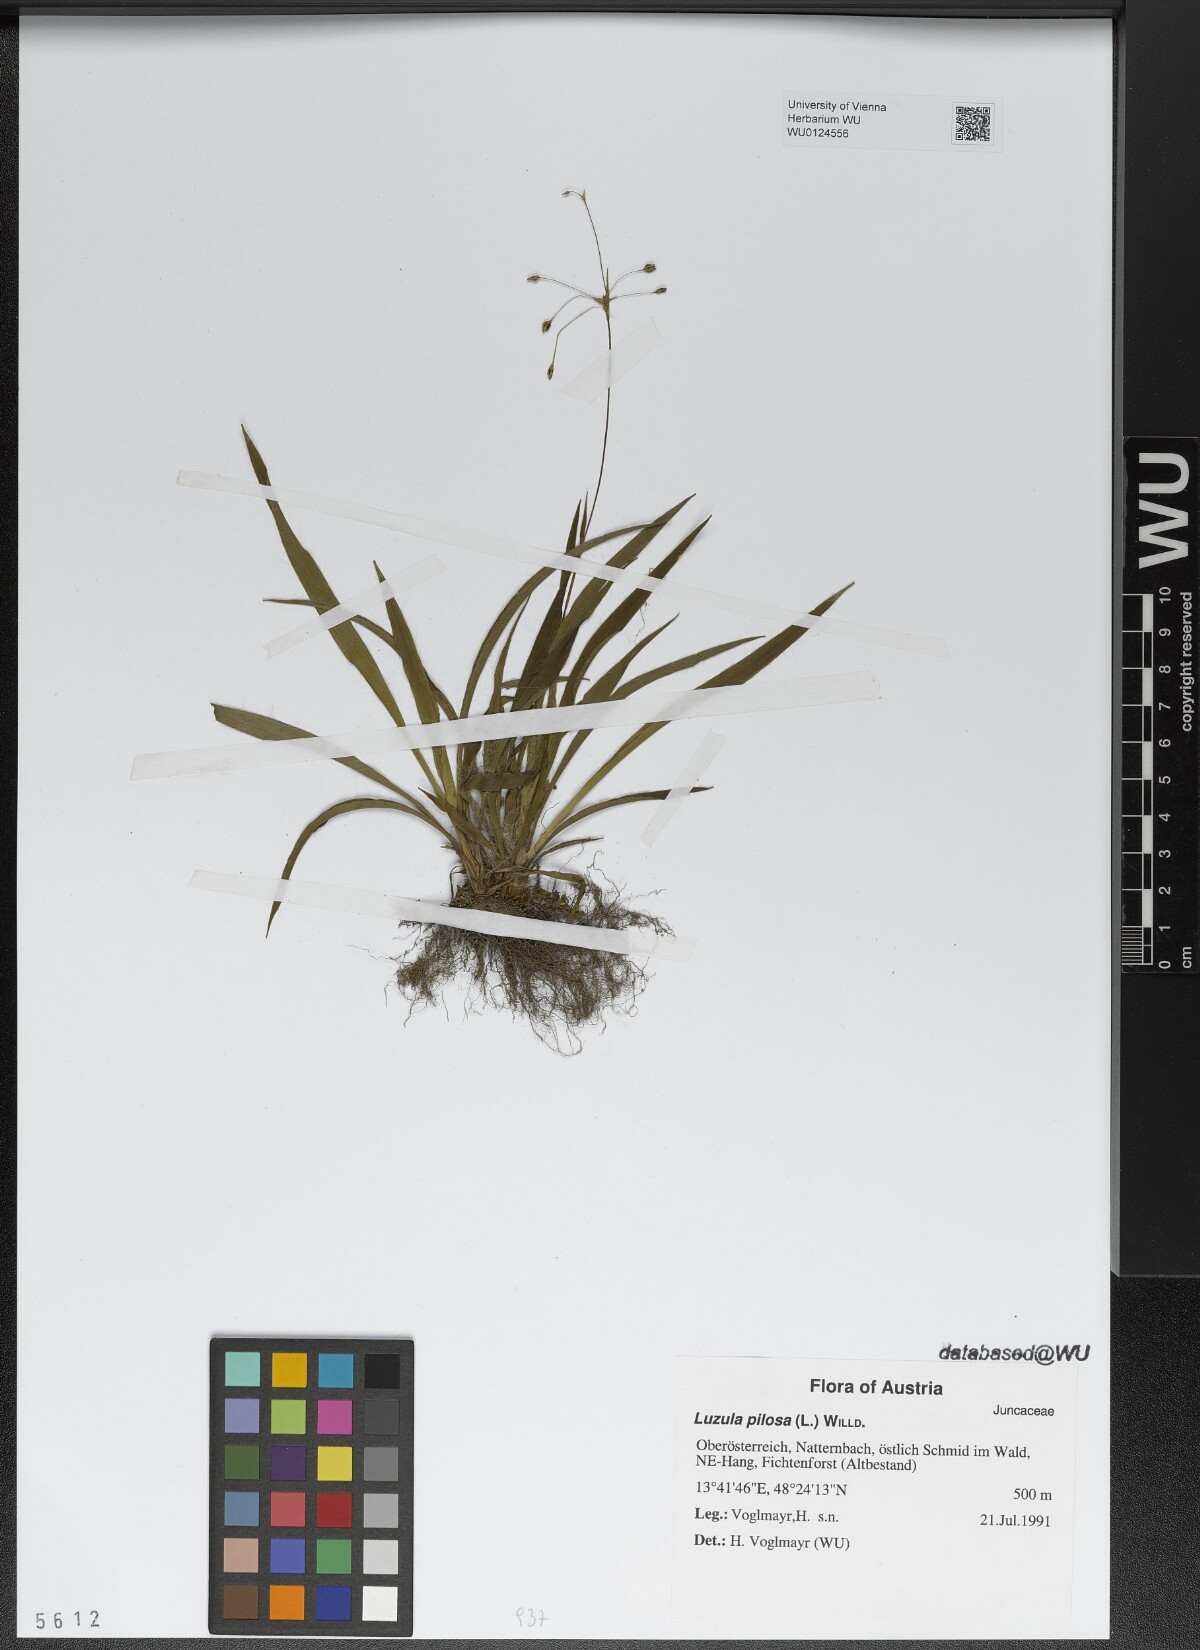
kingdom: Plantae
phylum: Tracheophyta
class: Liliopsida
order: Poales
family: Juncaceae
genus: Luzula
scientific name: Luzula pilosa
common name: Hairy wood-rush
